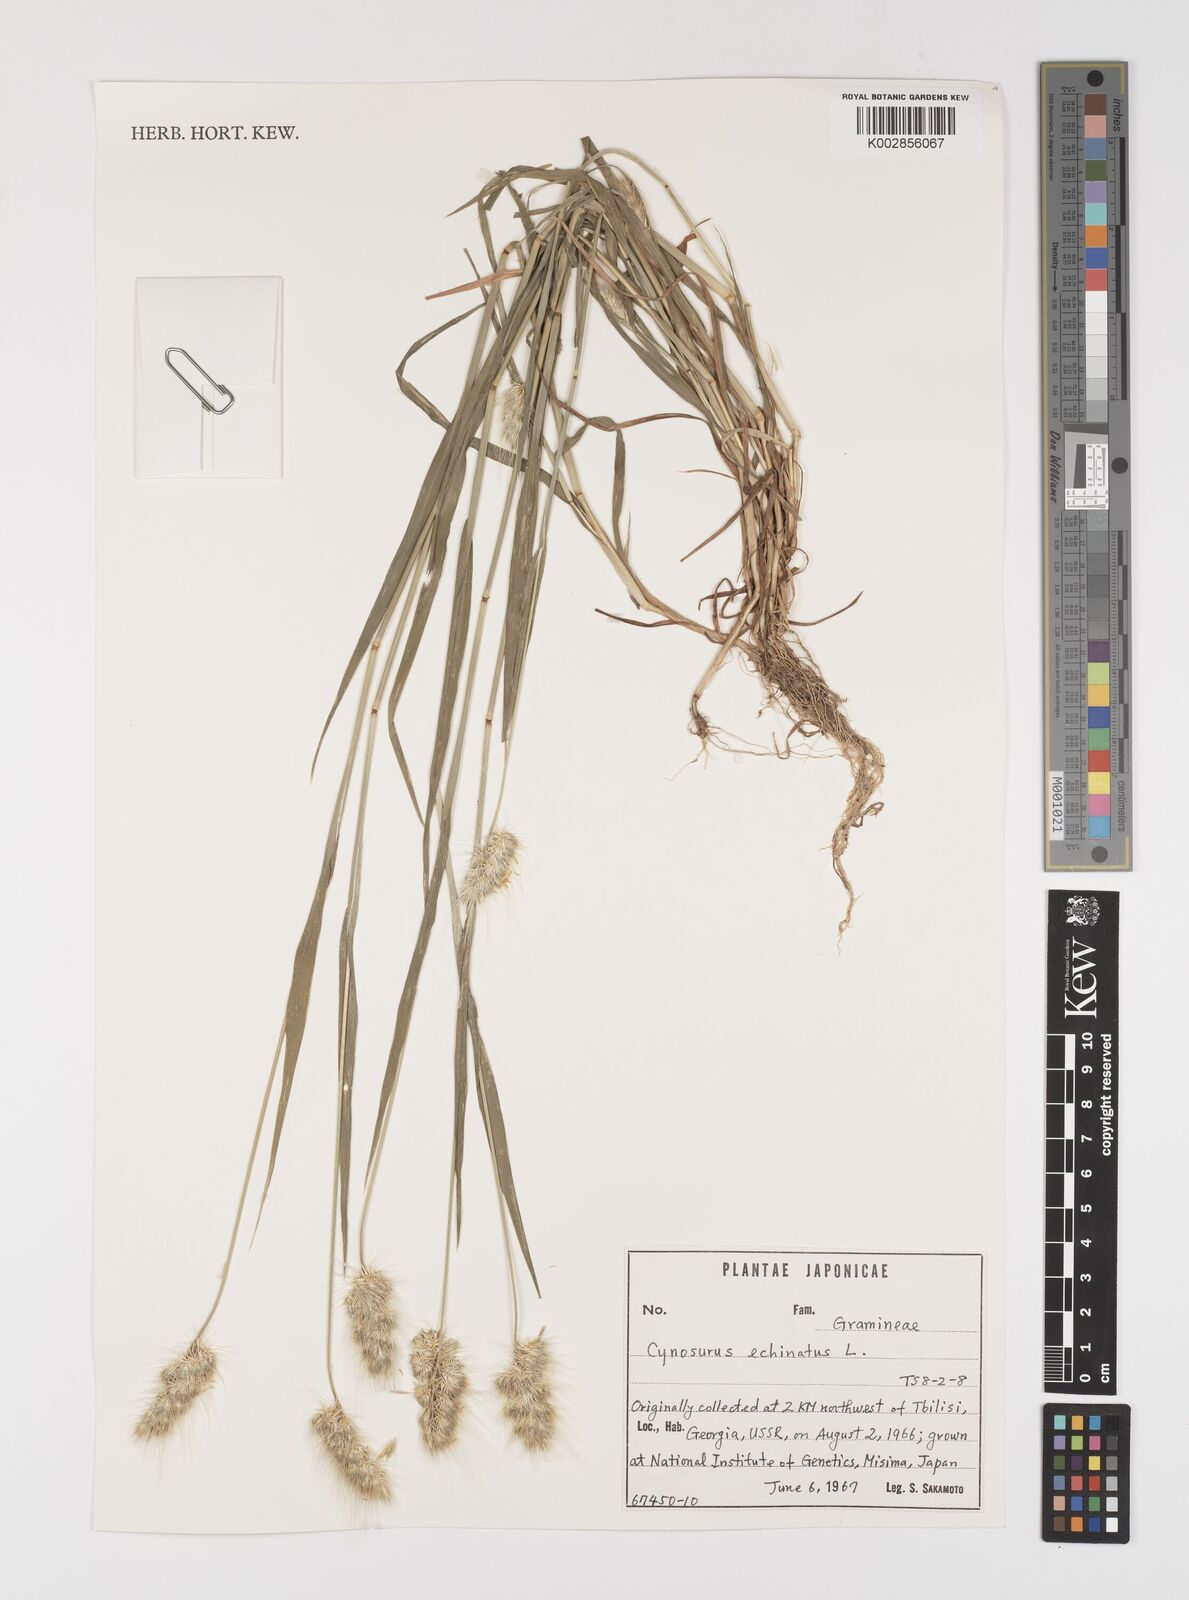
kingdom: Plantae
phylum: Tracheophyta
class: Liliopsida
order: Poales
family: Poaceae
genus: Cynosurus
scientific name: Cynosurus echinatus
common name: Rough dog's-tail
